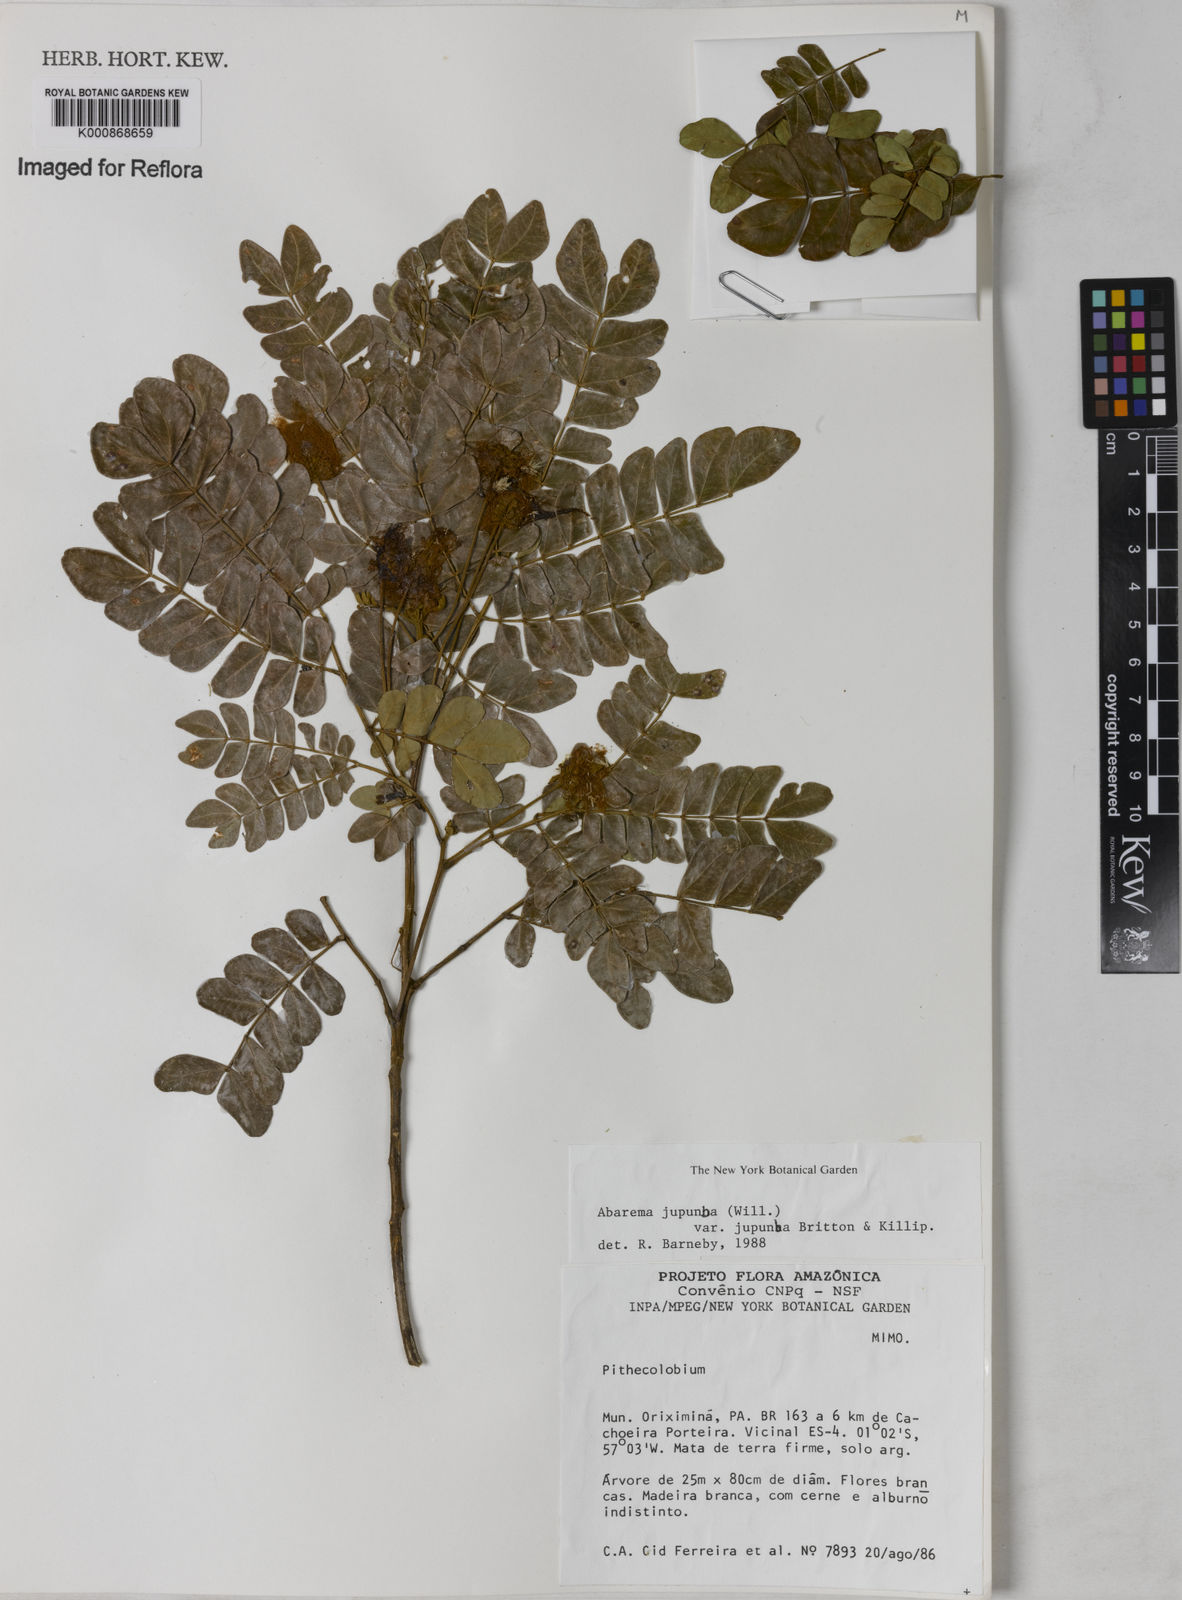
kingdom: Plantae
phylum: Tracheophyta
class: Magnoliopsida
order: Fabales
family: Fabaceae
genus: Jupunba
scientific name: Jupunba trapezifolia
